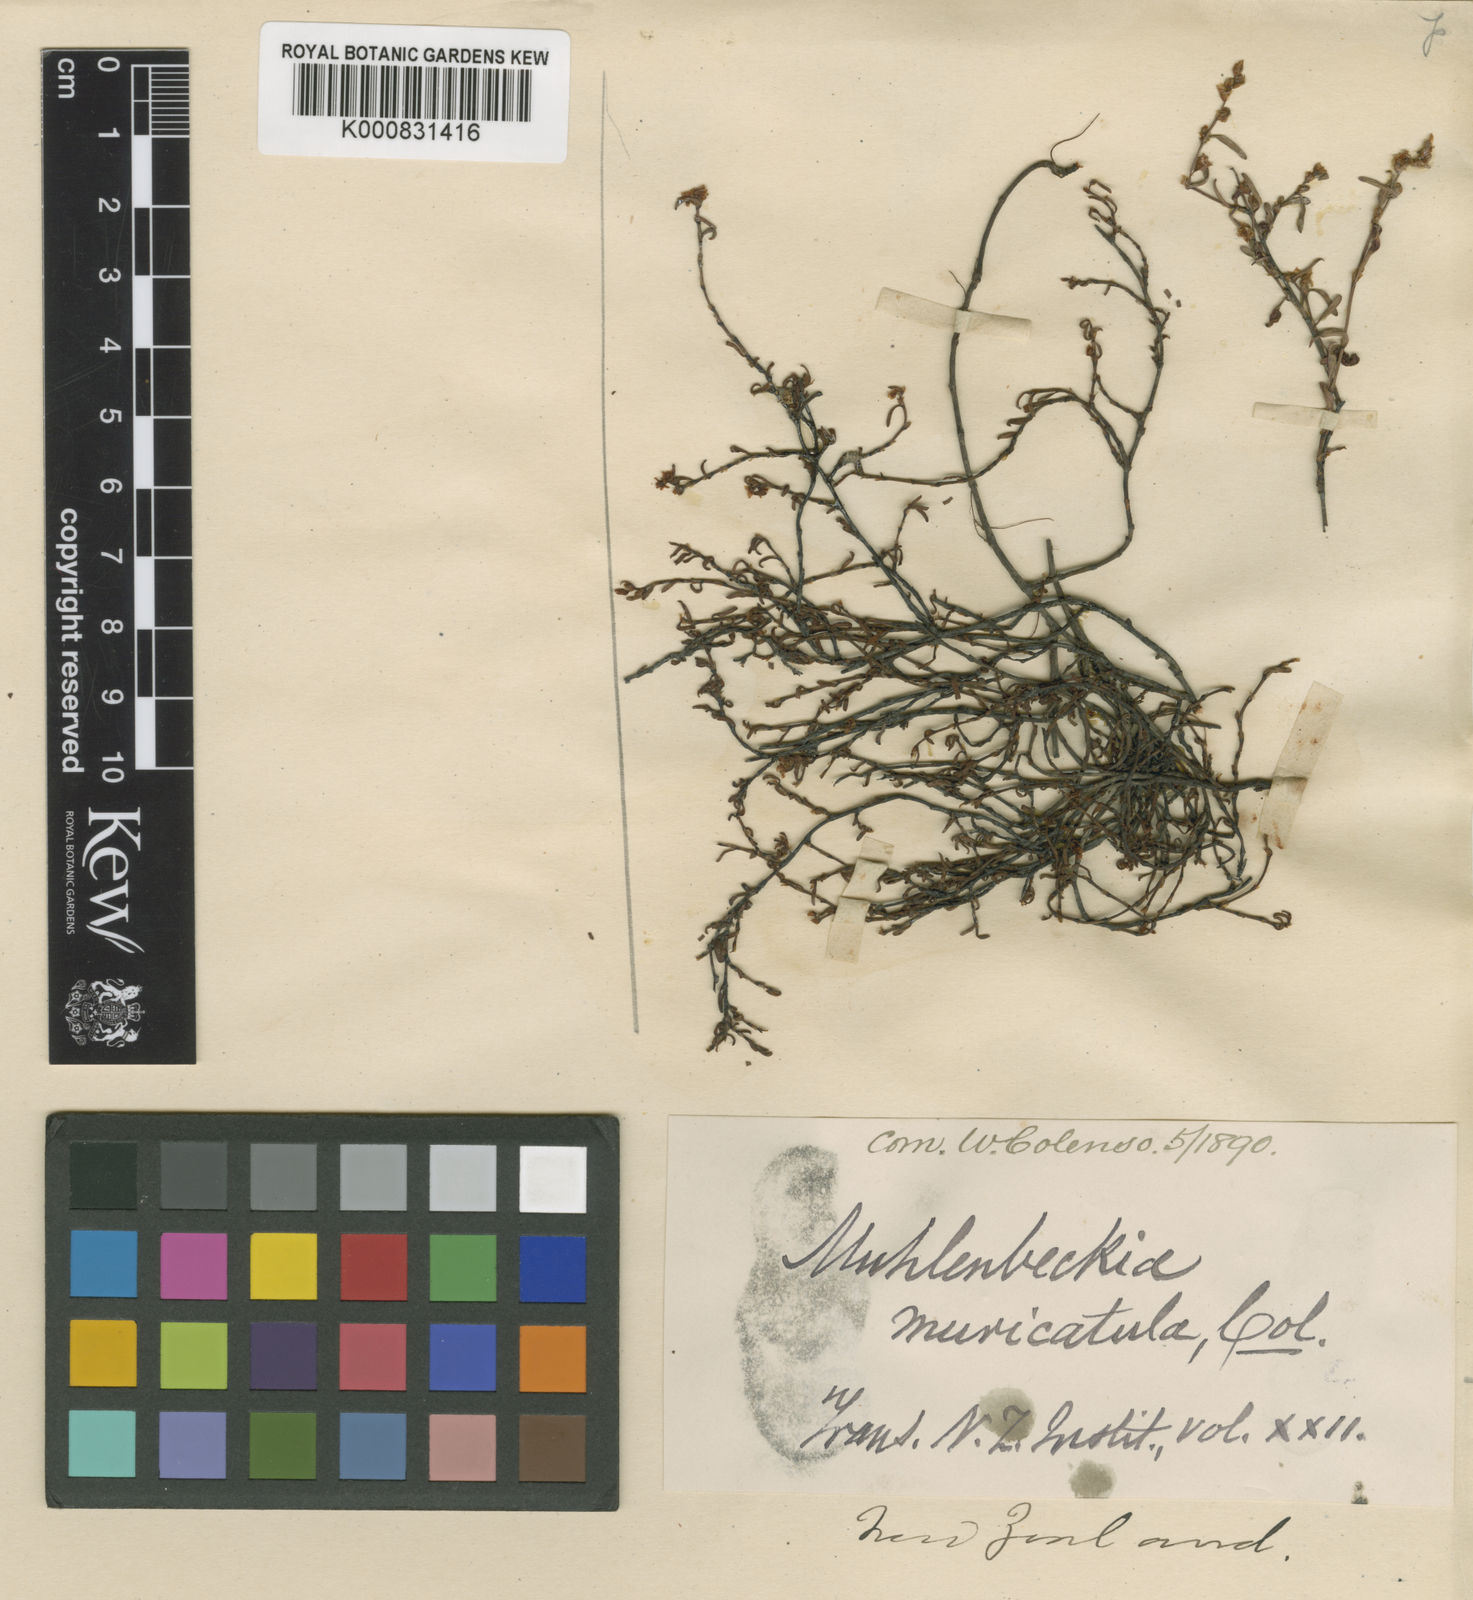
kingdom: Plantae
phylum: Tracheophyta
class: Magnoliopsida
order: Caryophyllales
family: Polygonaceae
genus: Muehlenbeckia
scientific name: Muehlenbeckia ephedroides
